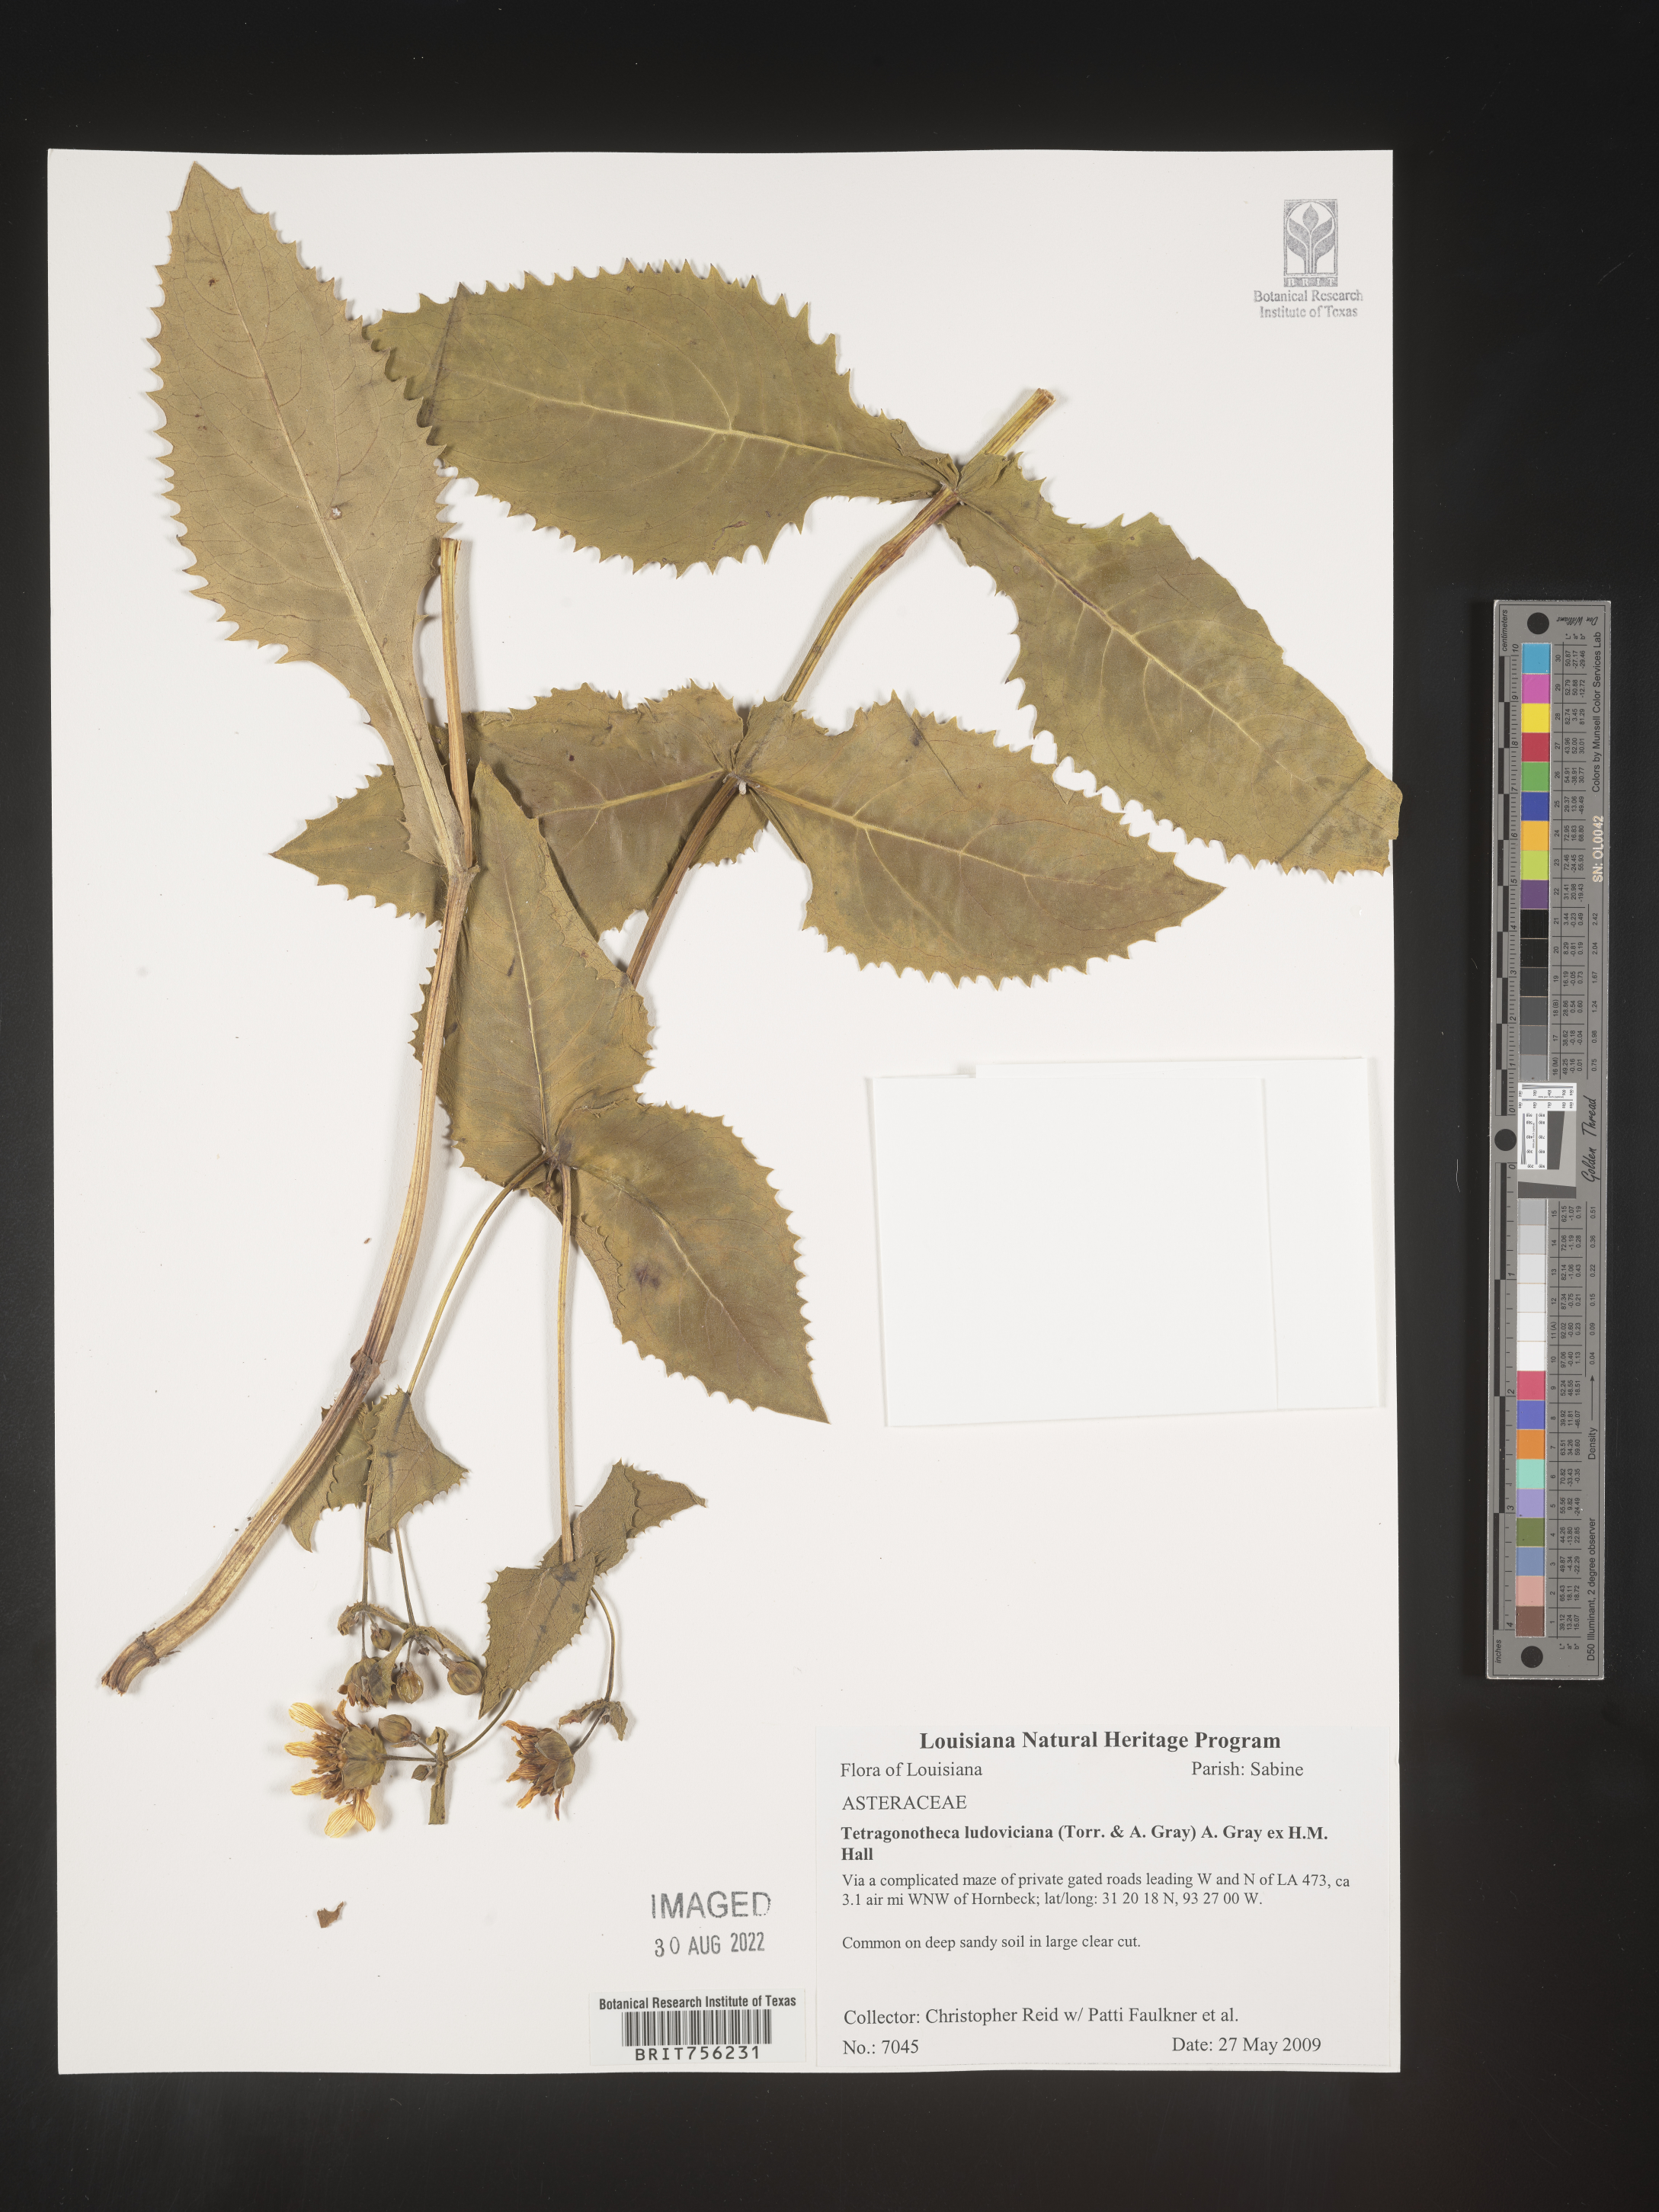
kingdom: Plantae
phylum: Tracheophyta
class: Magnoliopsida
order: Asterales
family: Asteraceae
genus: Tetragonotheca
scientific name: Tetragonotheca
